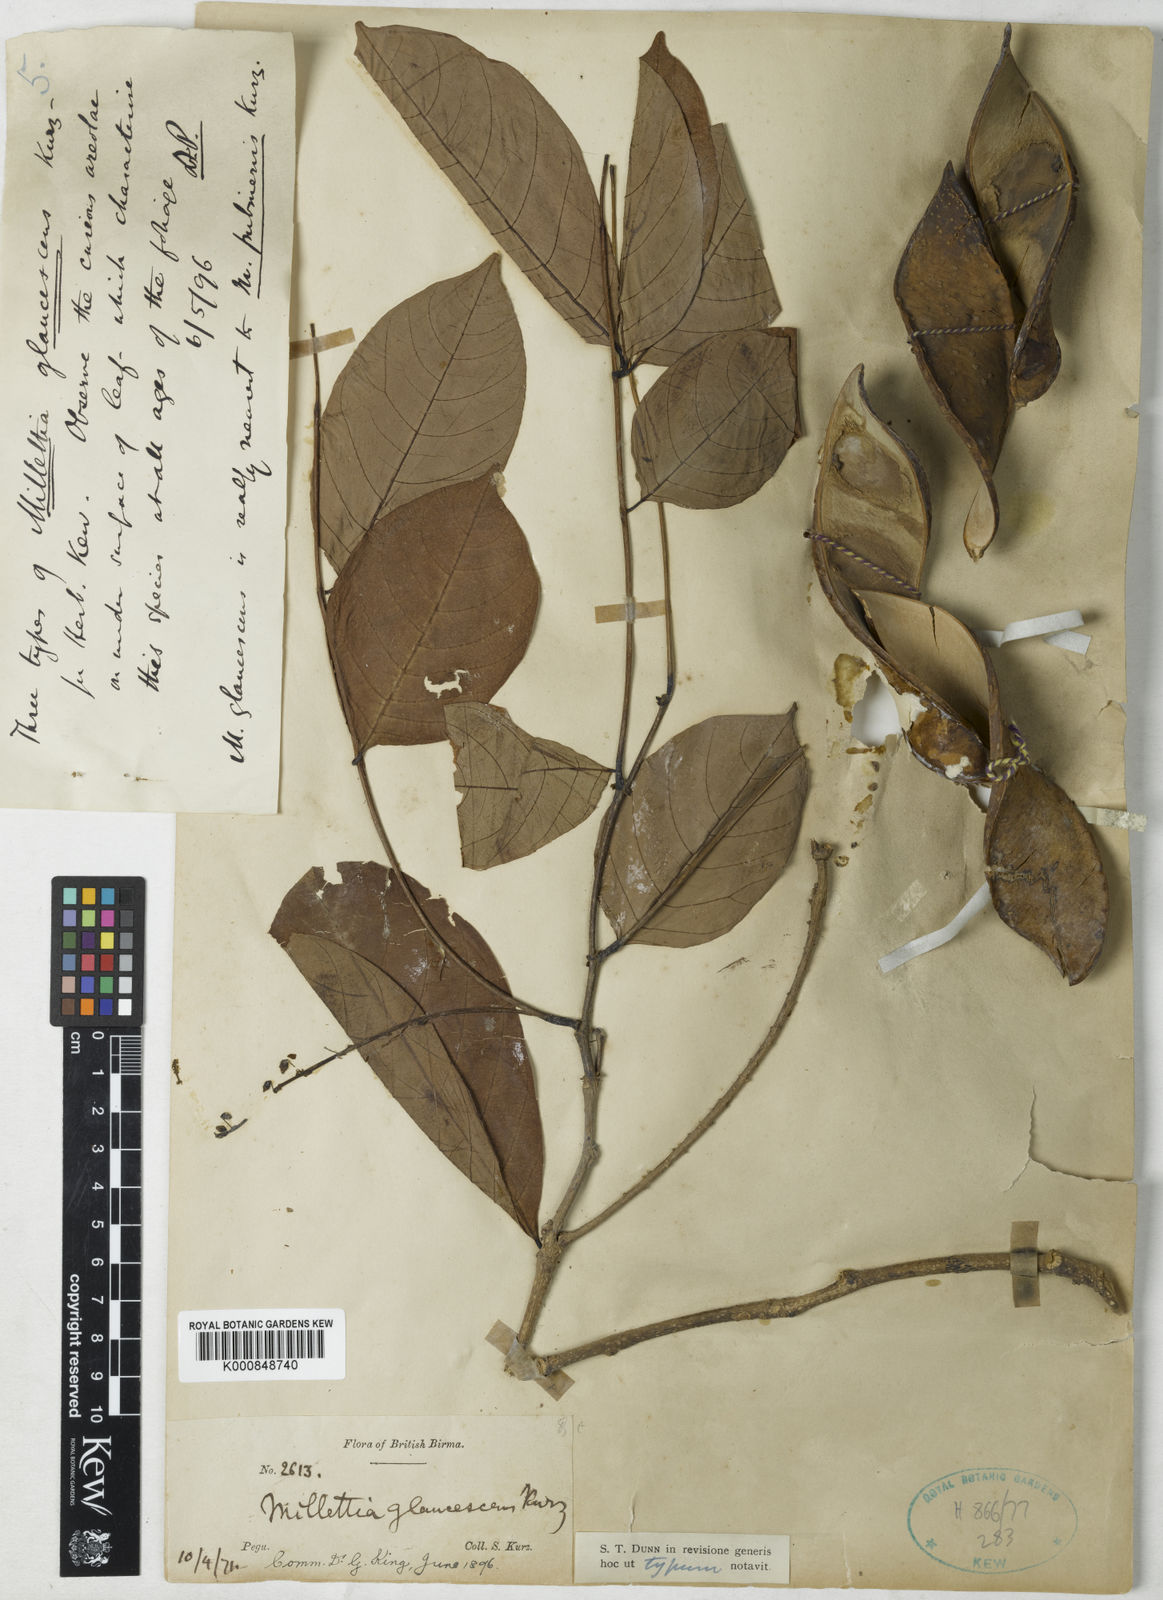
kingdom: Plantae
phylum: Tracheophyta
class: Magnoliopsida
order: Fabales
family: Fabaceae
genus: Millettia
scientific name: Millettia glaucescens
